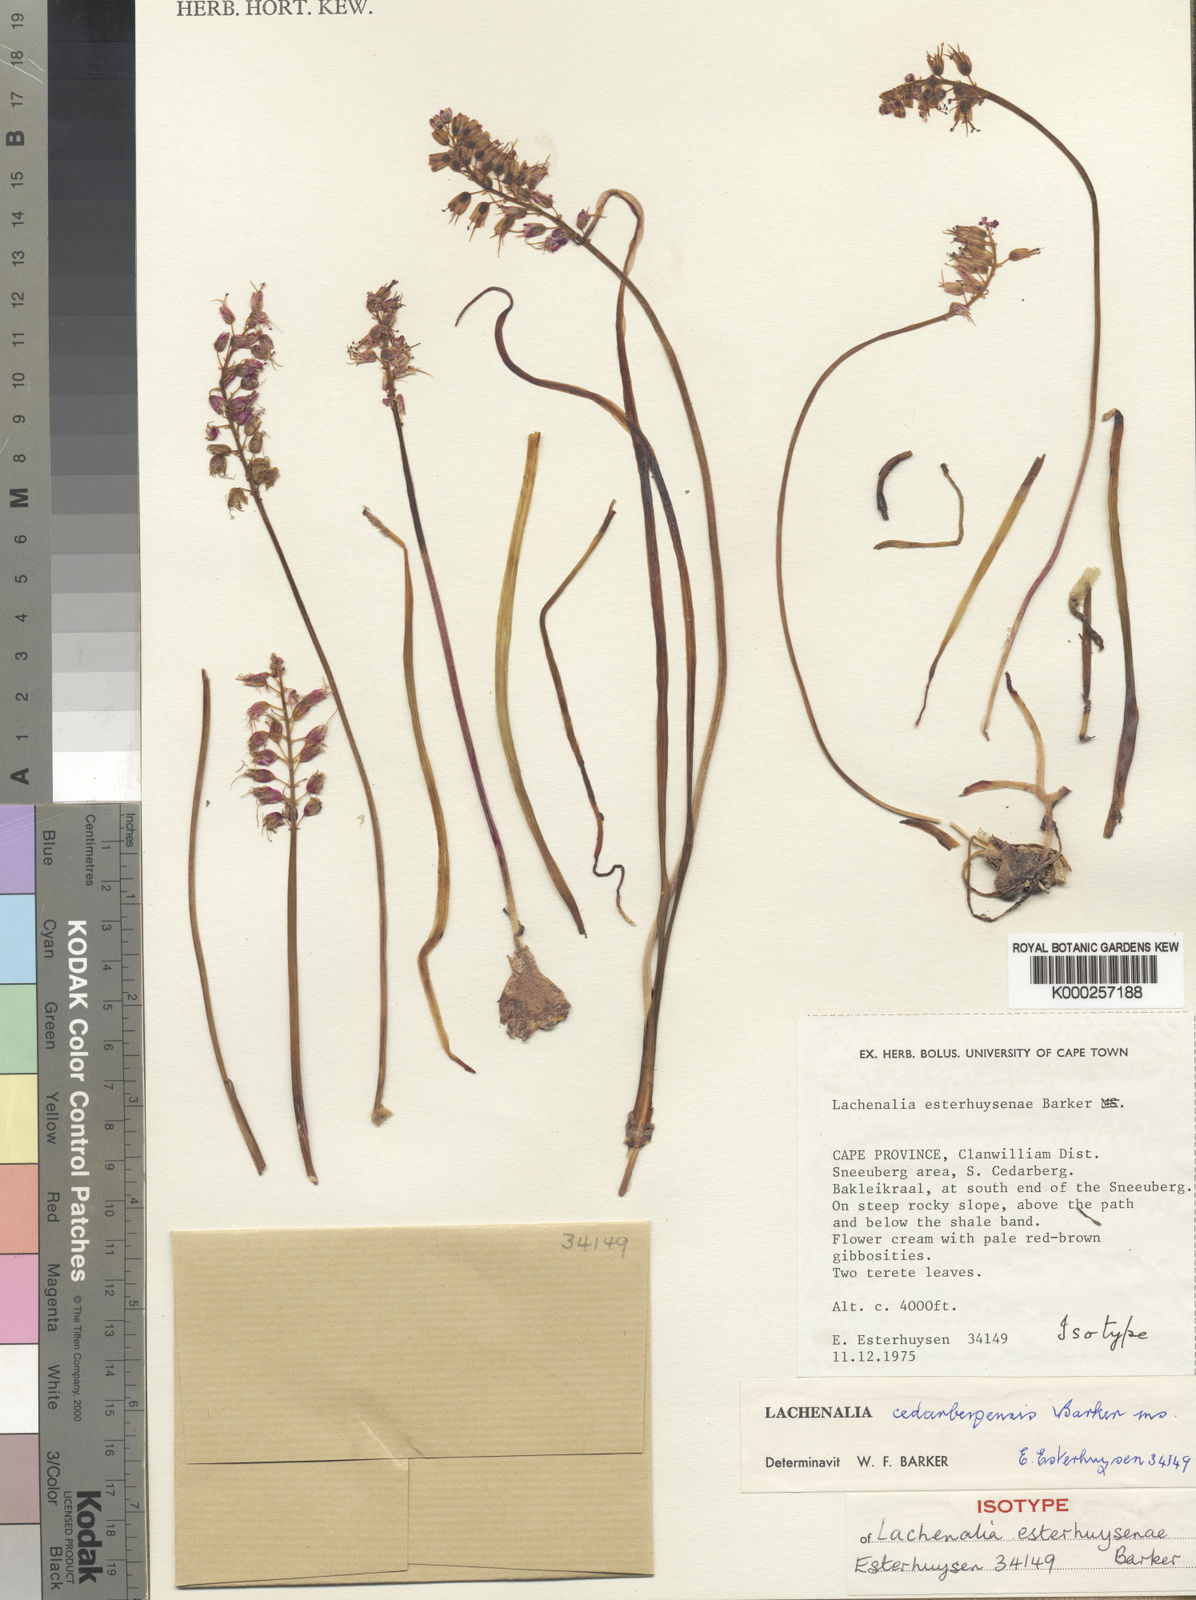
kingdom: Plantae
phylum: Tracheophyta
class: Liliopsida
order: Asparagales
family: Asparagaceae
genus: Lachenalia
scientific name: Lachenalia juncifolia
